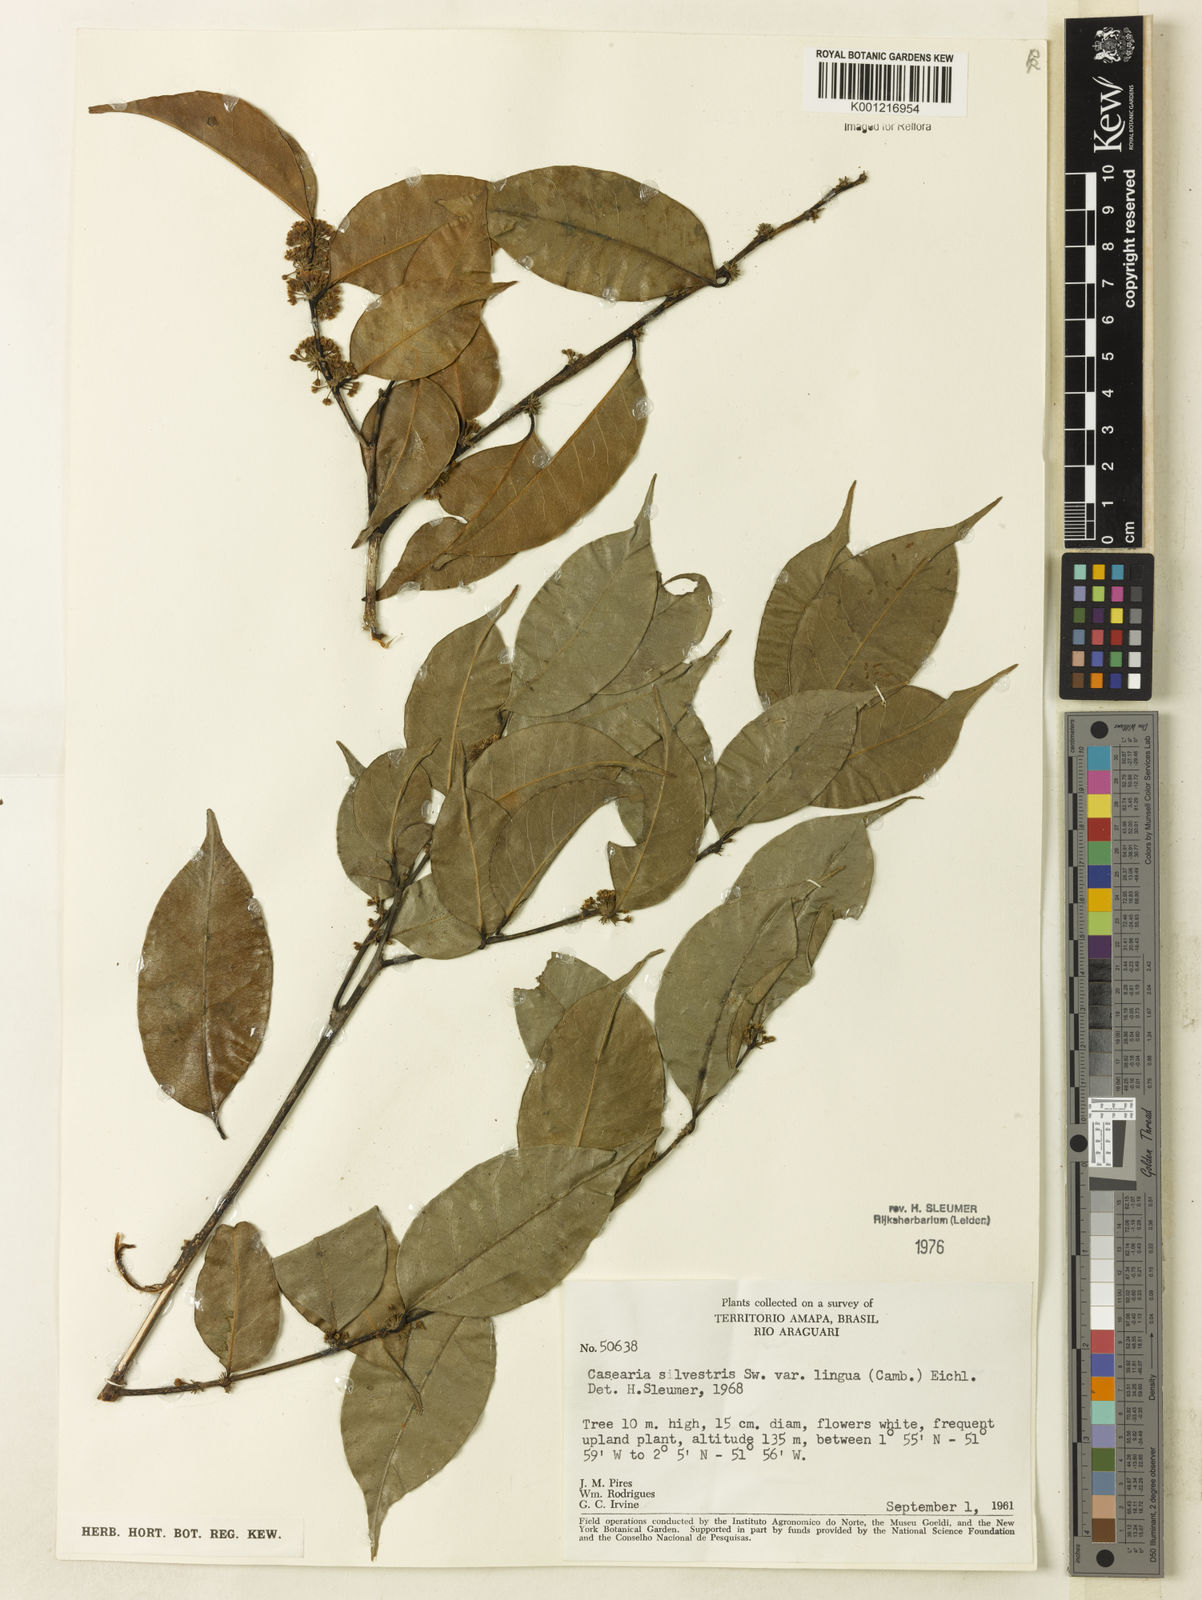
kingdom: Plantae
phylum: Tracheophyta
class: Magnoliopsida
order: Malpighiales
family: Salicaceae
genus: Casearia
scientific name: Casearia sylvestris
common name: Wild sage
